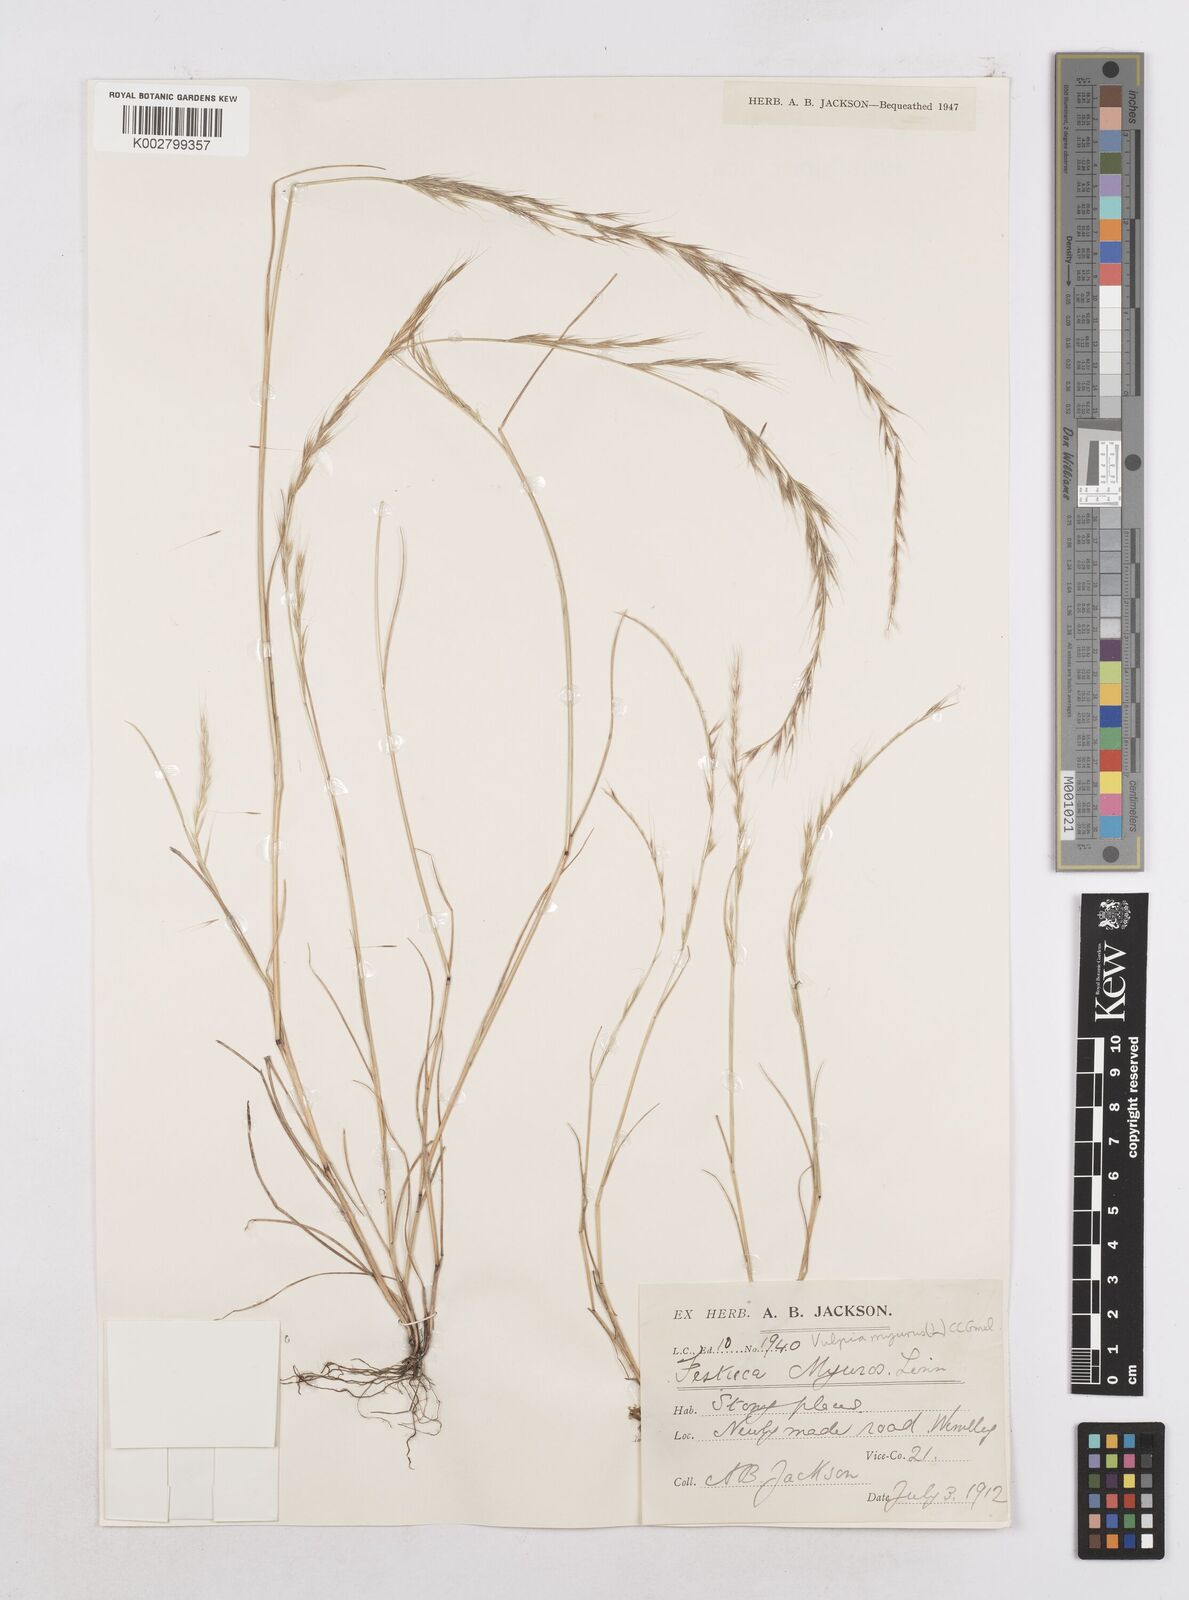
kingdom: Plantae
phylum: Tracheophyta
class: Liliopsida
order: Poales
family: Poaceae
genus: Festuca
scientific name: Festuca myuros
